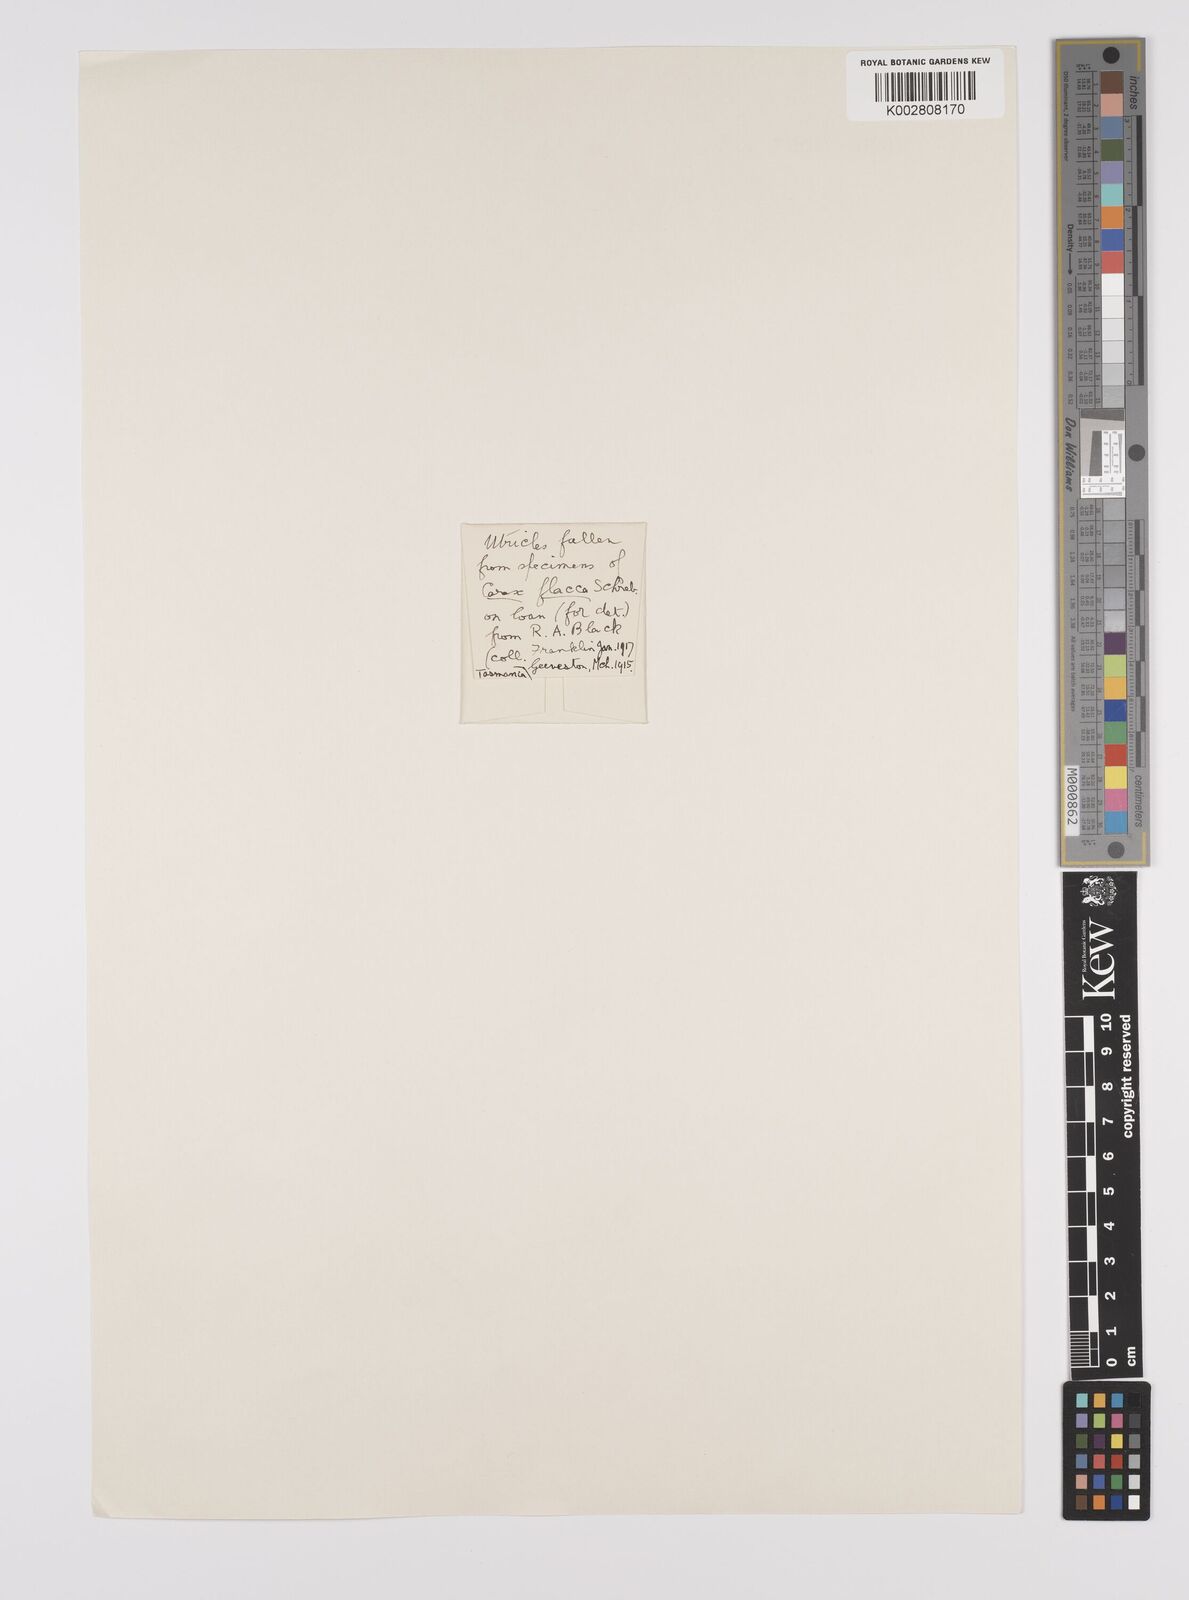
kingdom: Plantae
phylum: Tracheophyta
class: Liliopsida
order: Poales
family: Cyperaceae
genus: Carex
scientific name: Carex flacca
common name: Glaucous sedge
